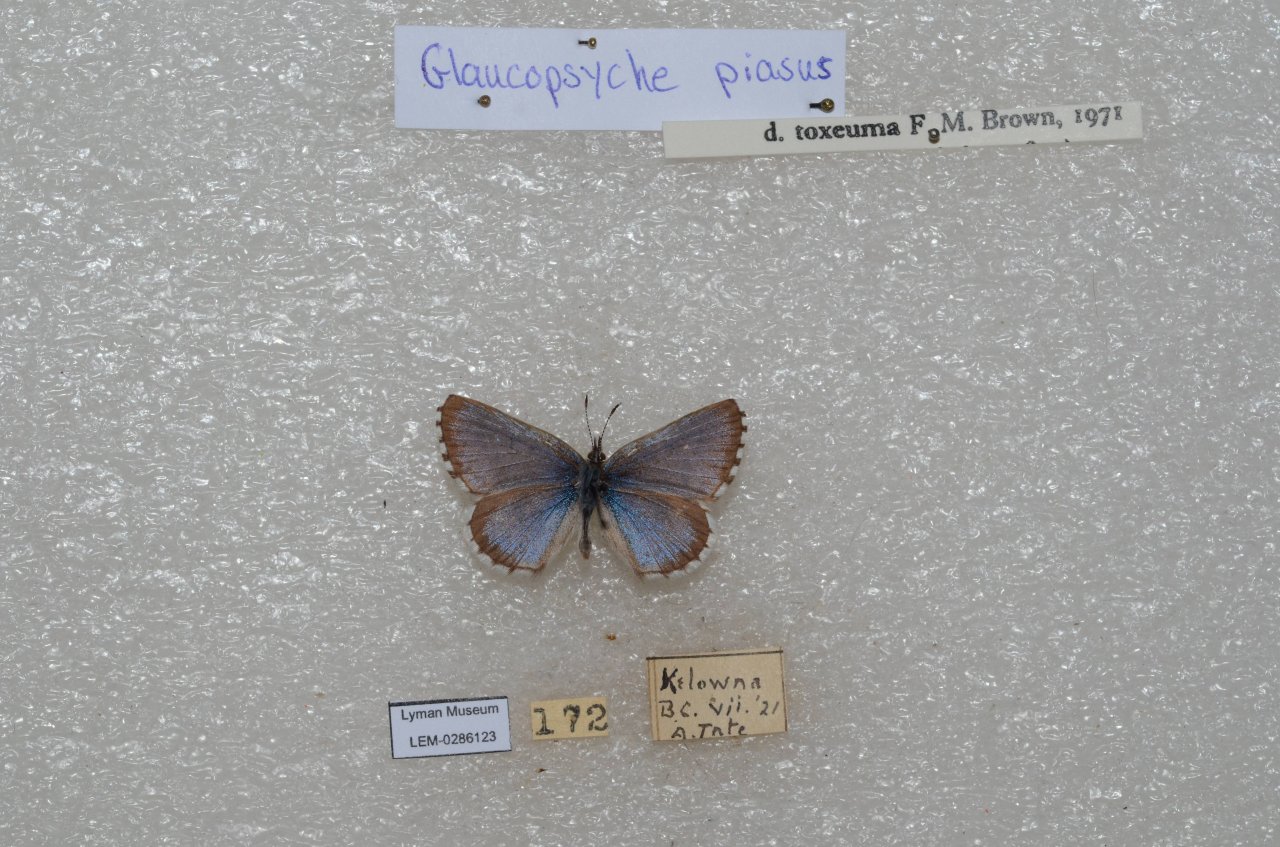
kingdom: Animalia
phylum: Arthropoda
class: Insecta
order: Lepidoptera
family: Lycaenidae
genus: Glaucopsyche
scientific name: Glaucopsyche piasus
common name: Arrowhead Blue
